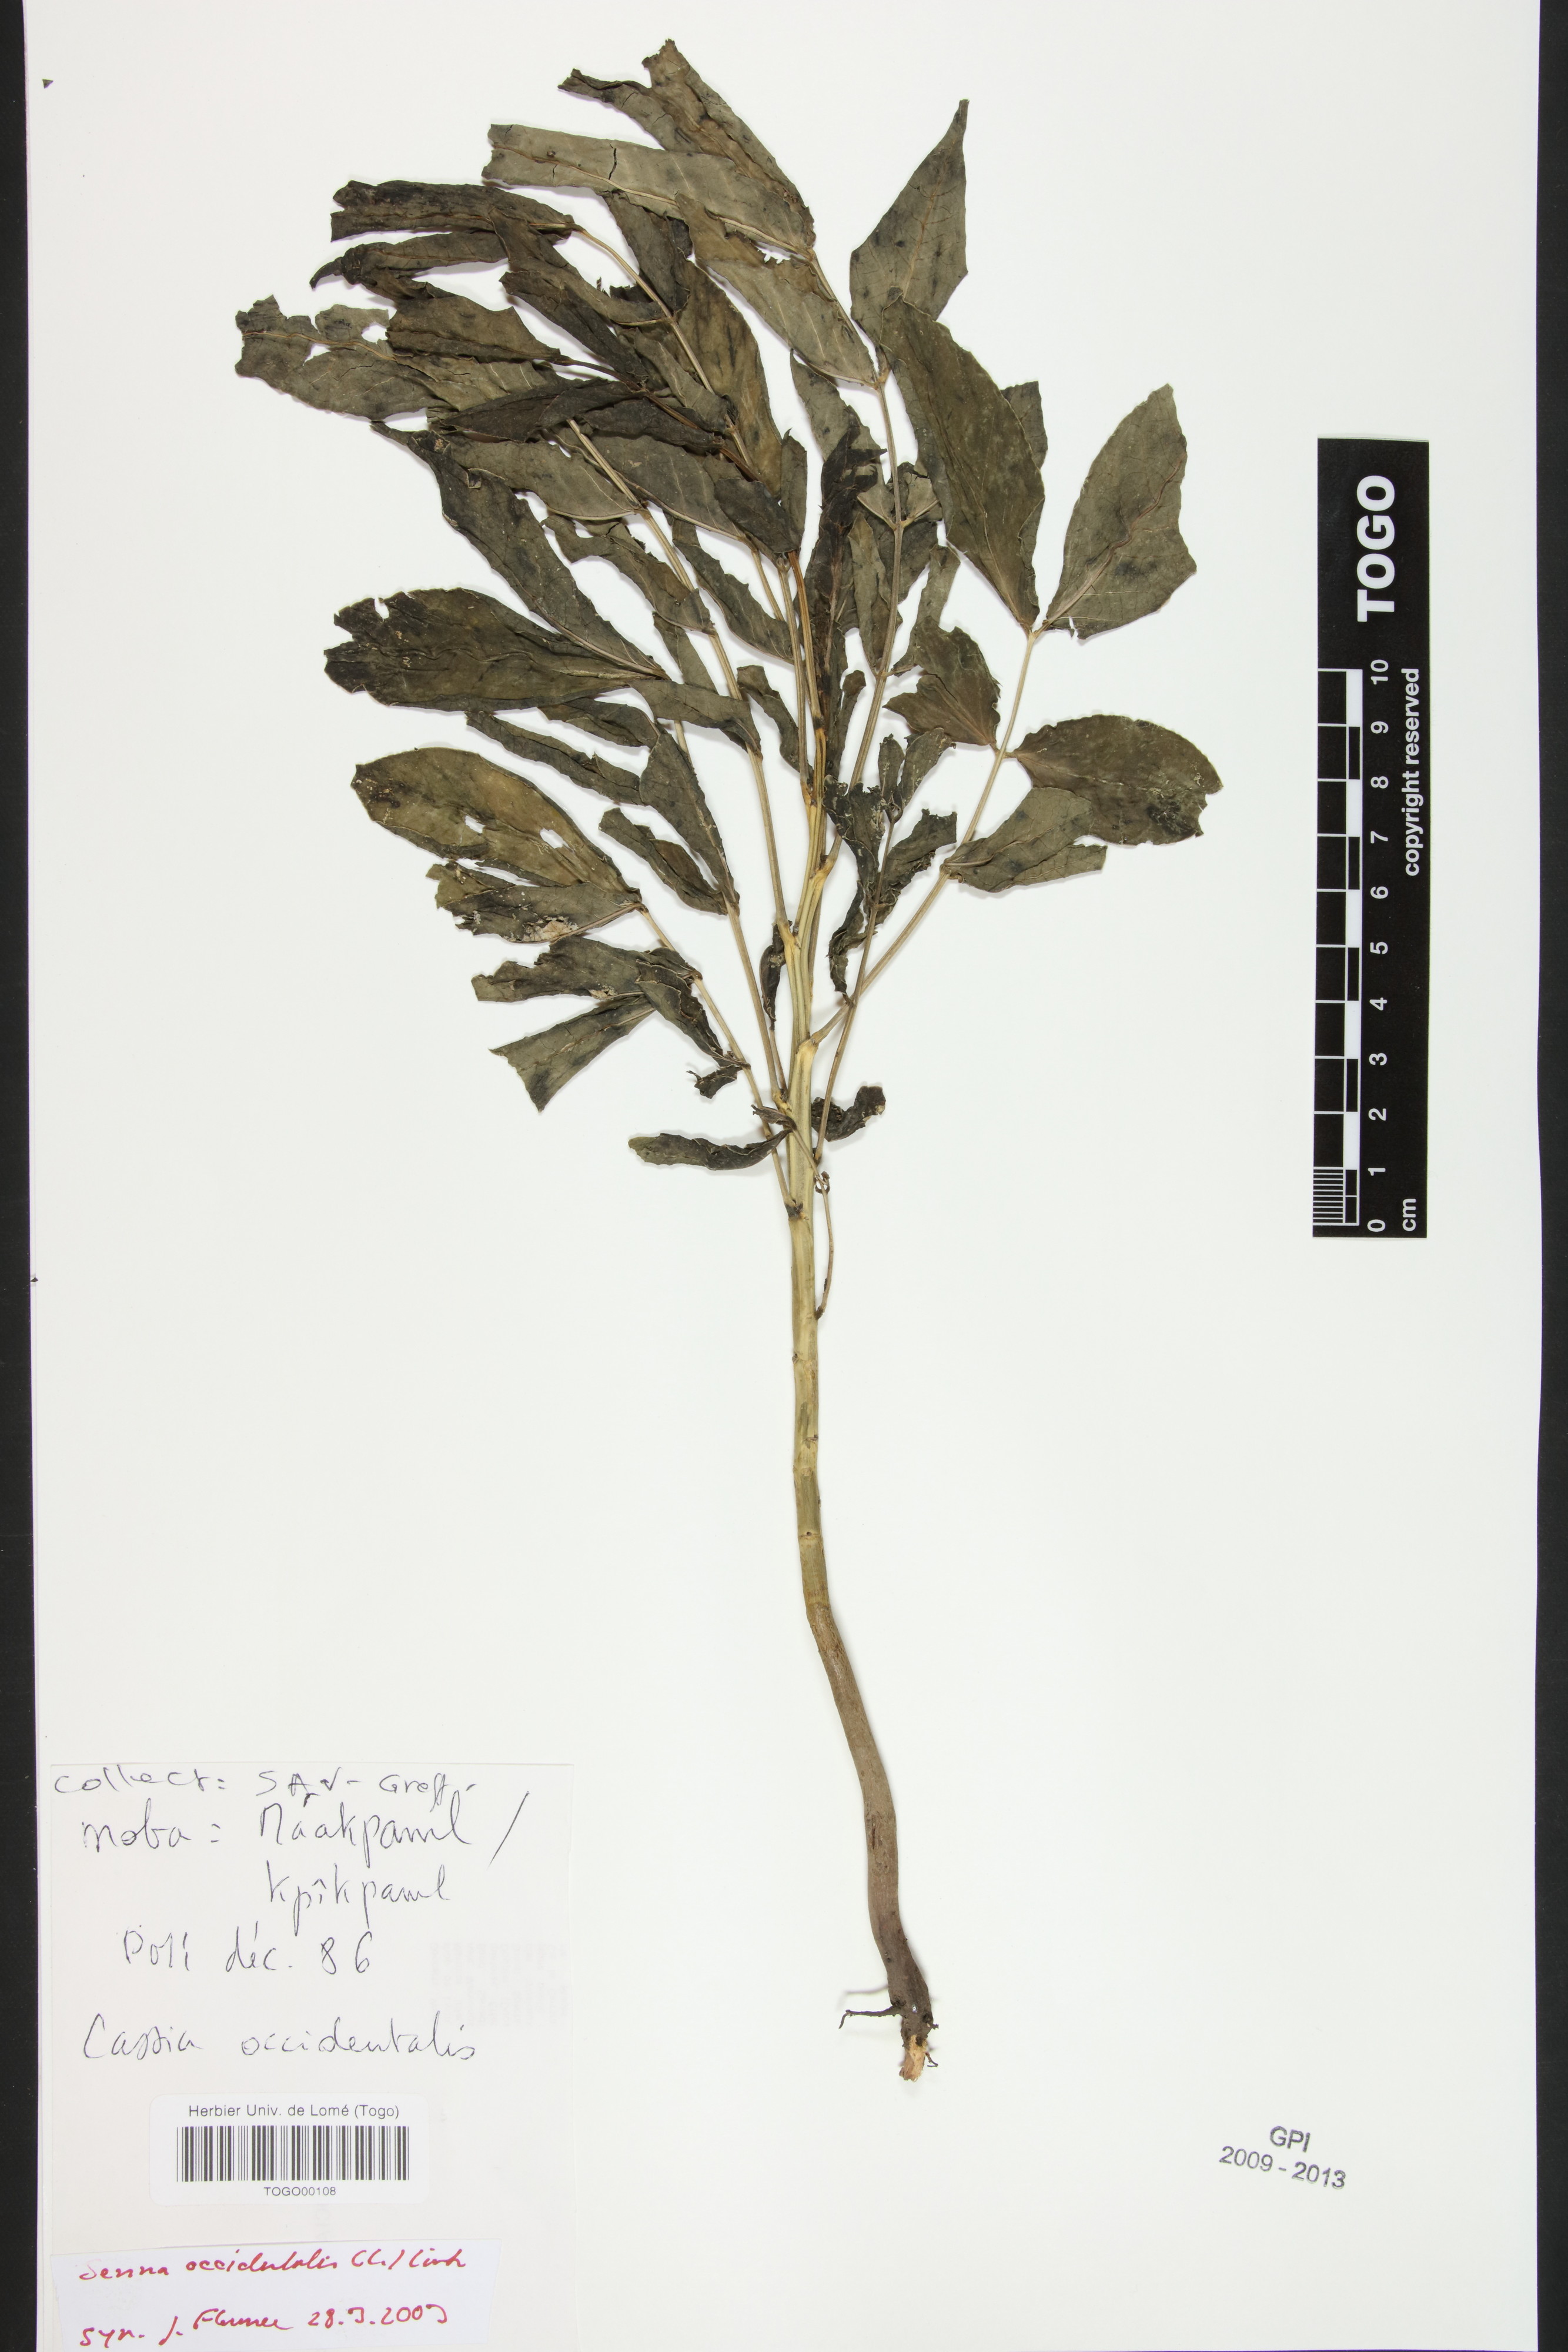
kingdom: Plantae
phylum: Tracheophyta
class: Magnoliopsida
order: Fabales
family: Fabaceae
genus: Senna
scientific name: Senna occidentalis
